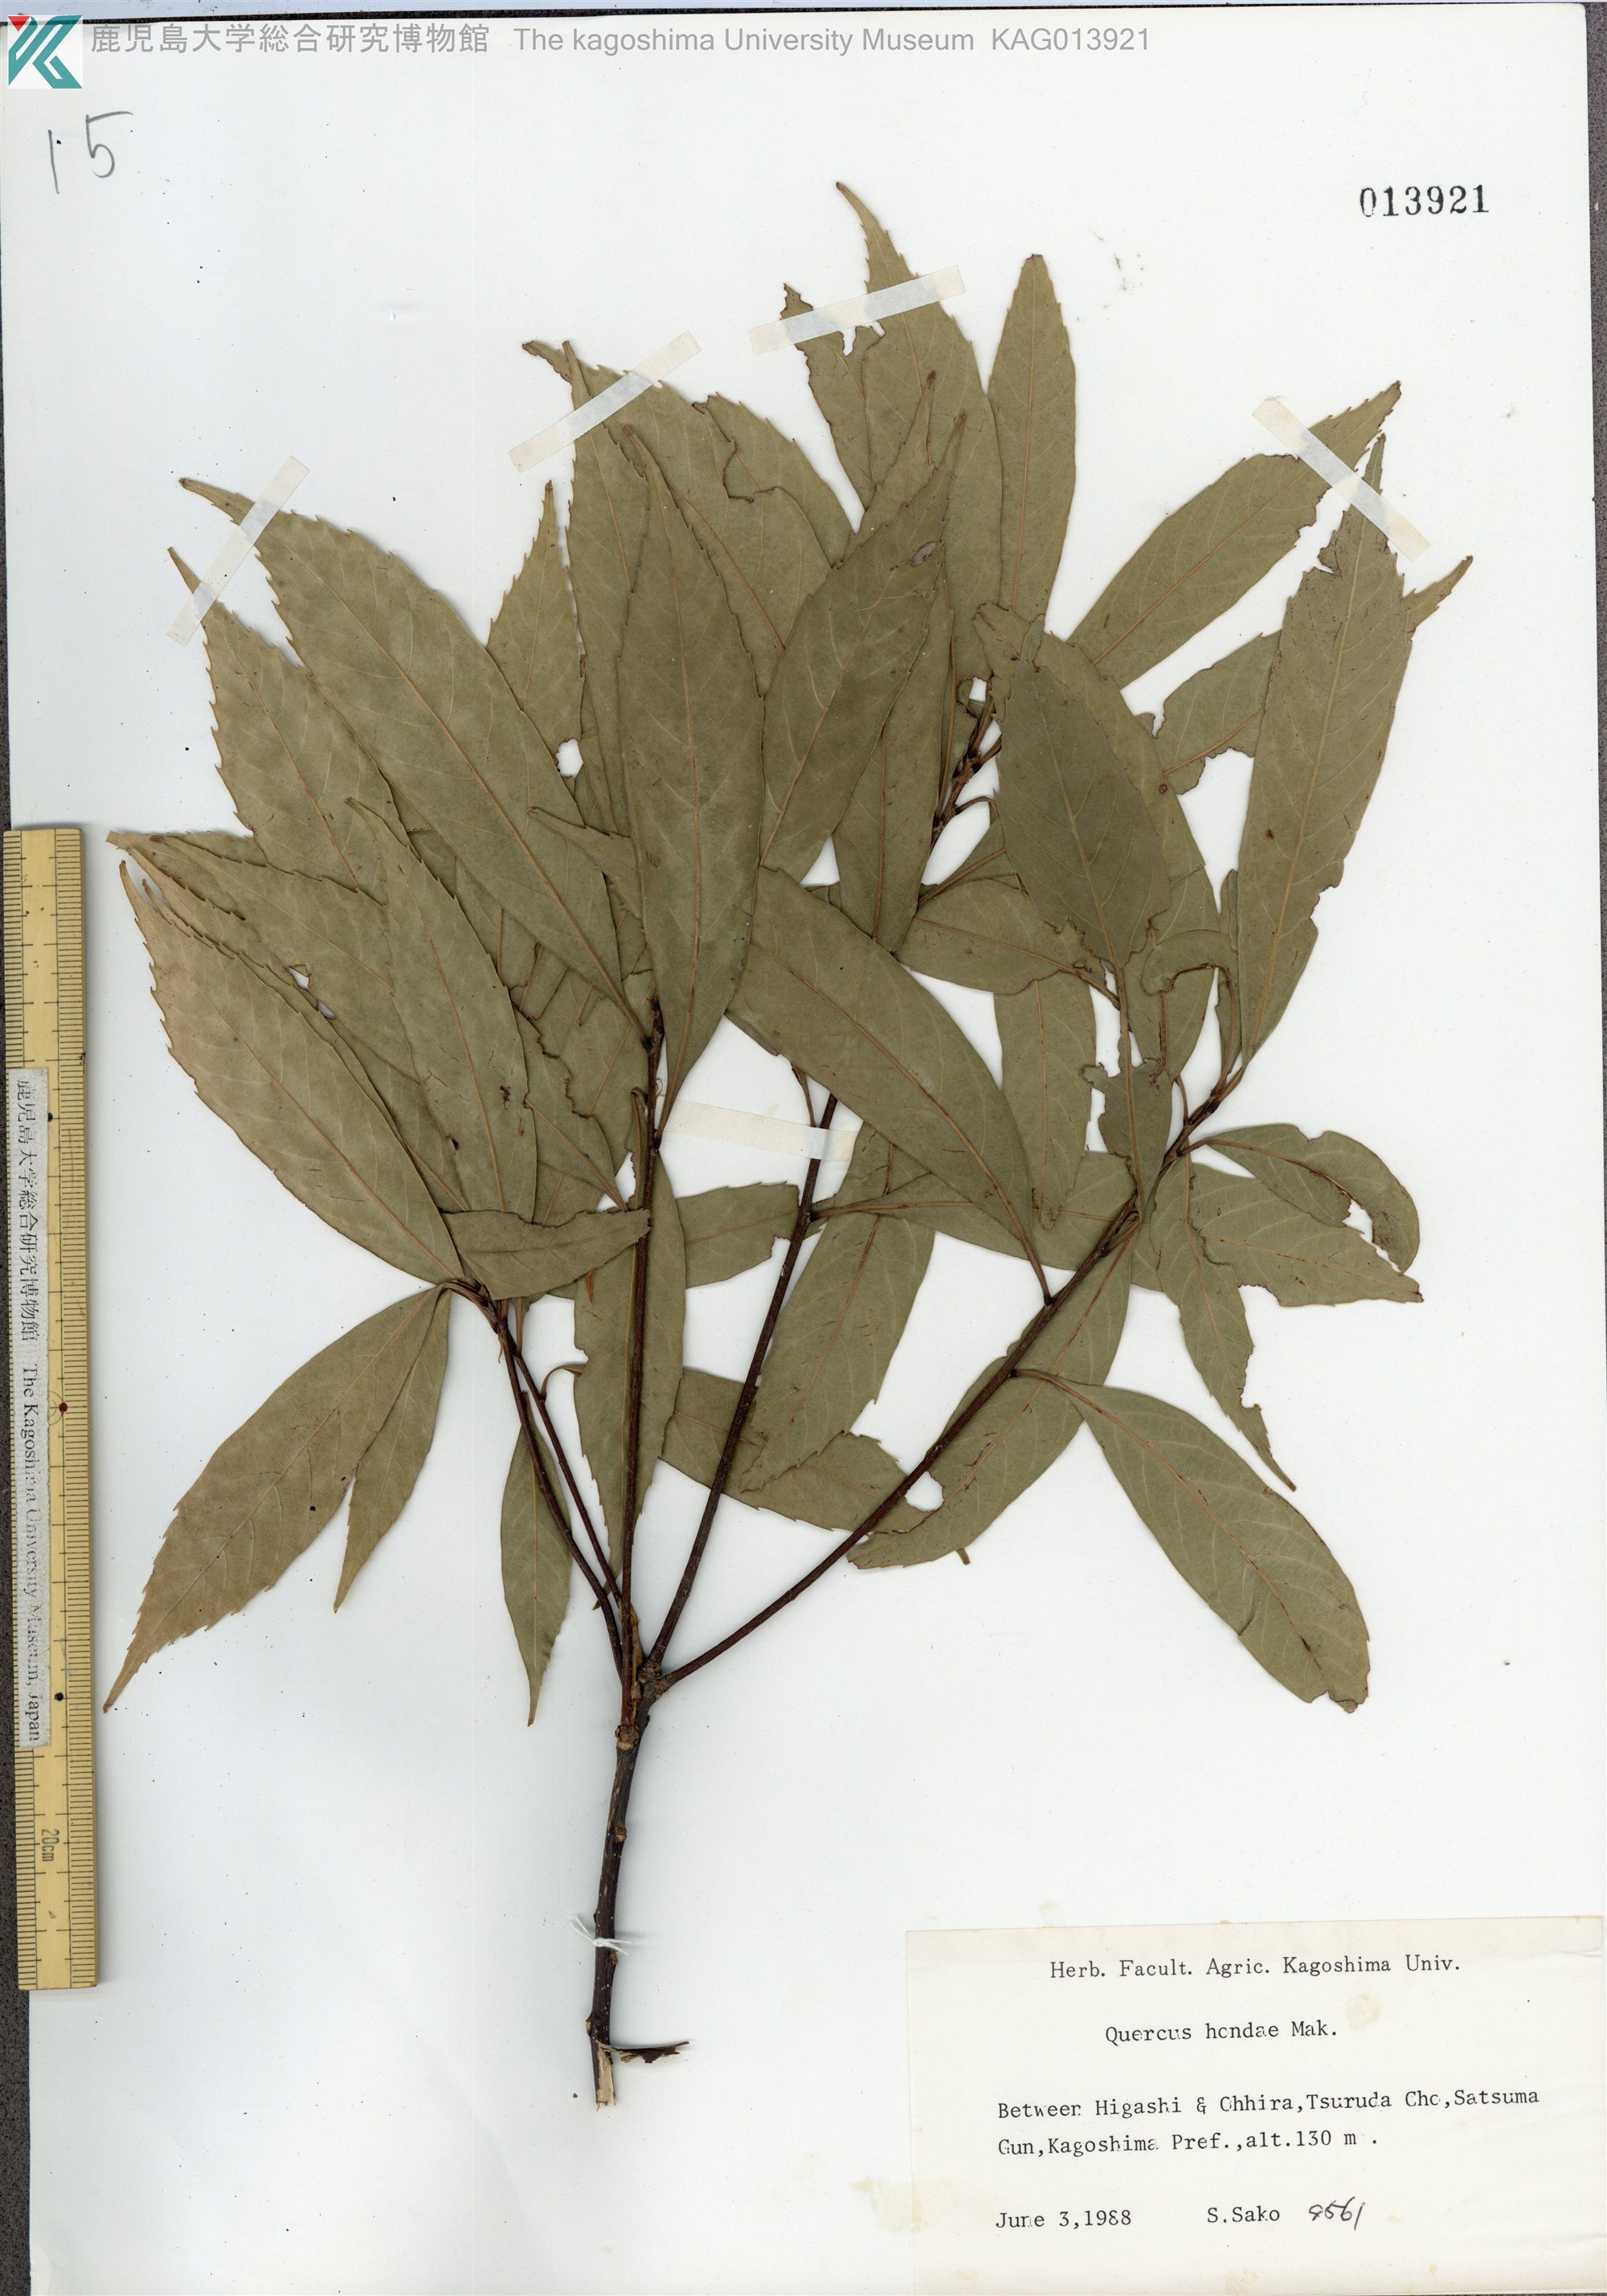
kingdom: Plantae
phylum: Tracheophyta
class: Magnoliopsida
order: Fagales
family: Fagaceae
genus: Quercus
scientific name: Quercus hondae
